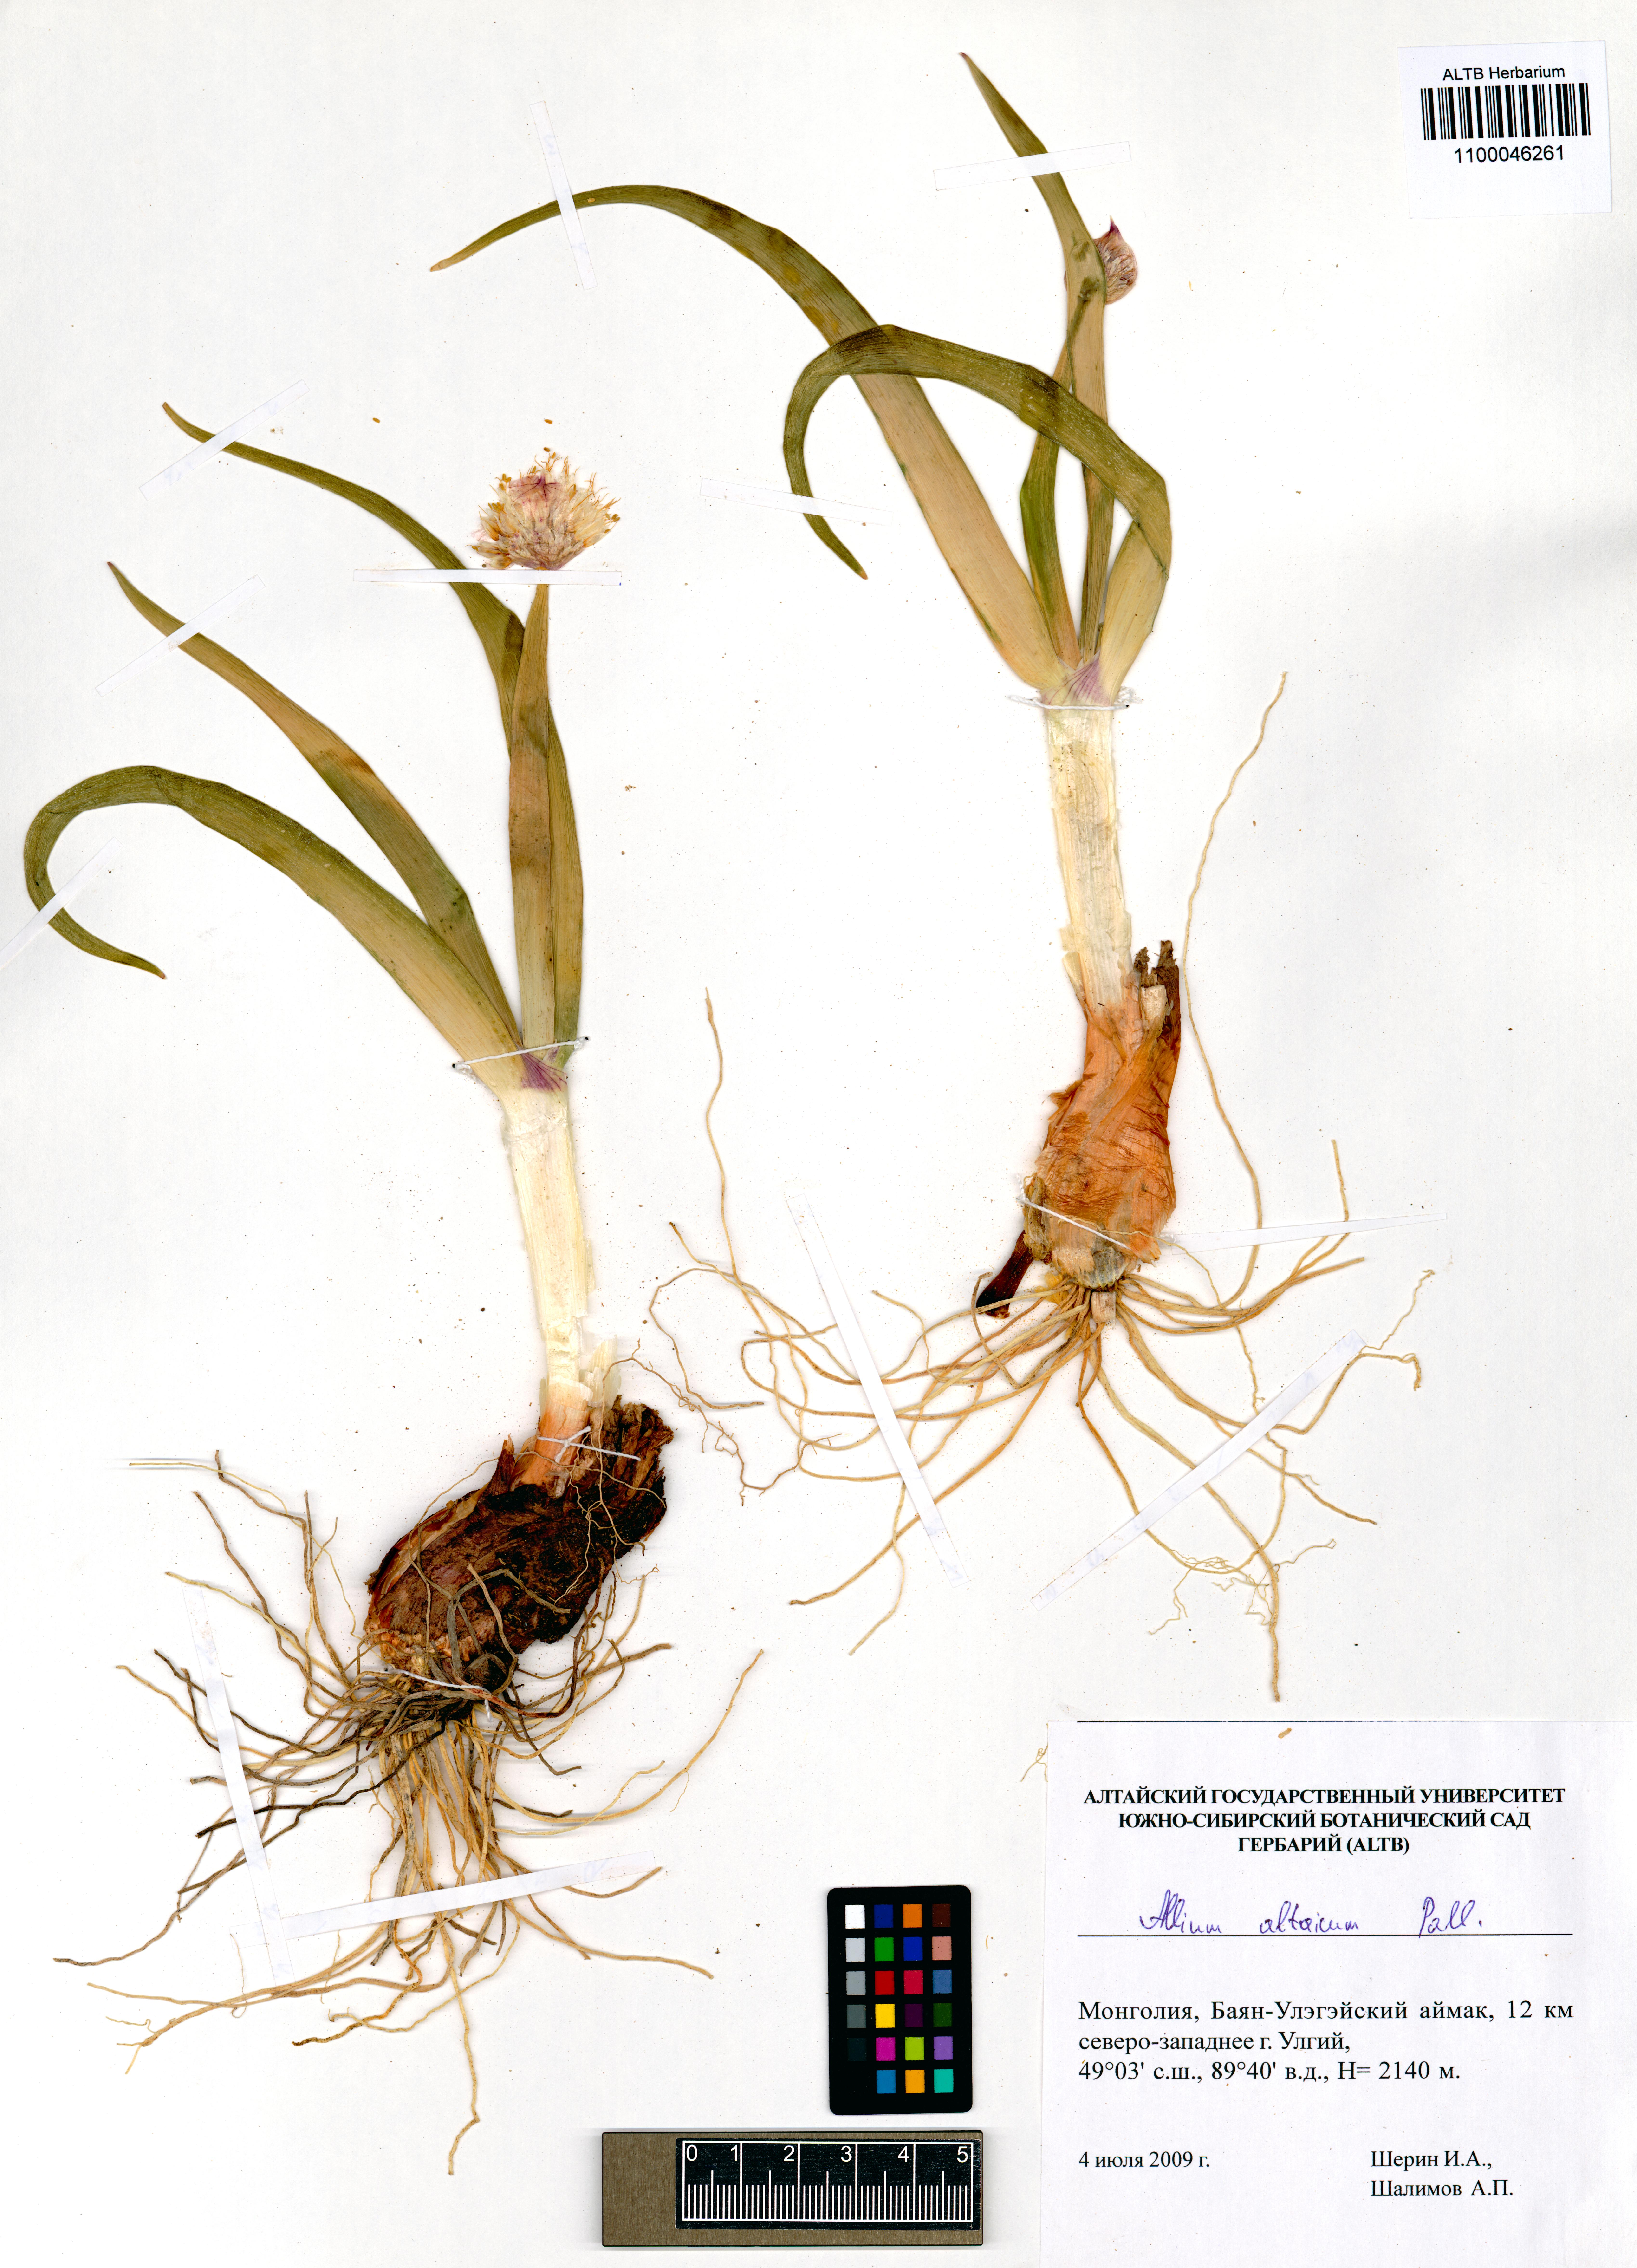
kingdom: Plantae
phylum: Tracheophyta
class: Liliopsida
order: Asparagales
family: Amaryllidaceae
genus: Allium
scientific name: Allium altaicum
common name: Altai onion
